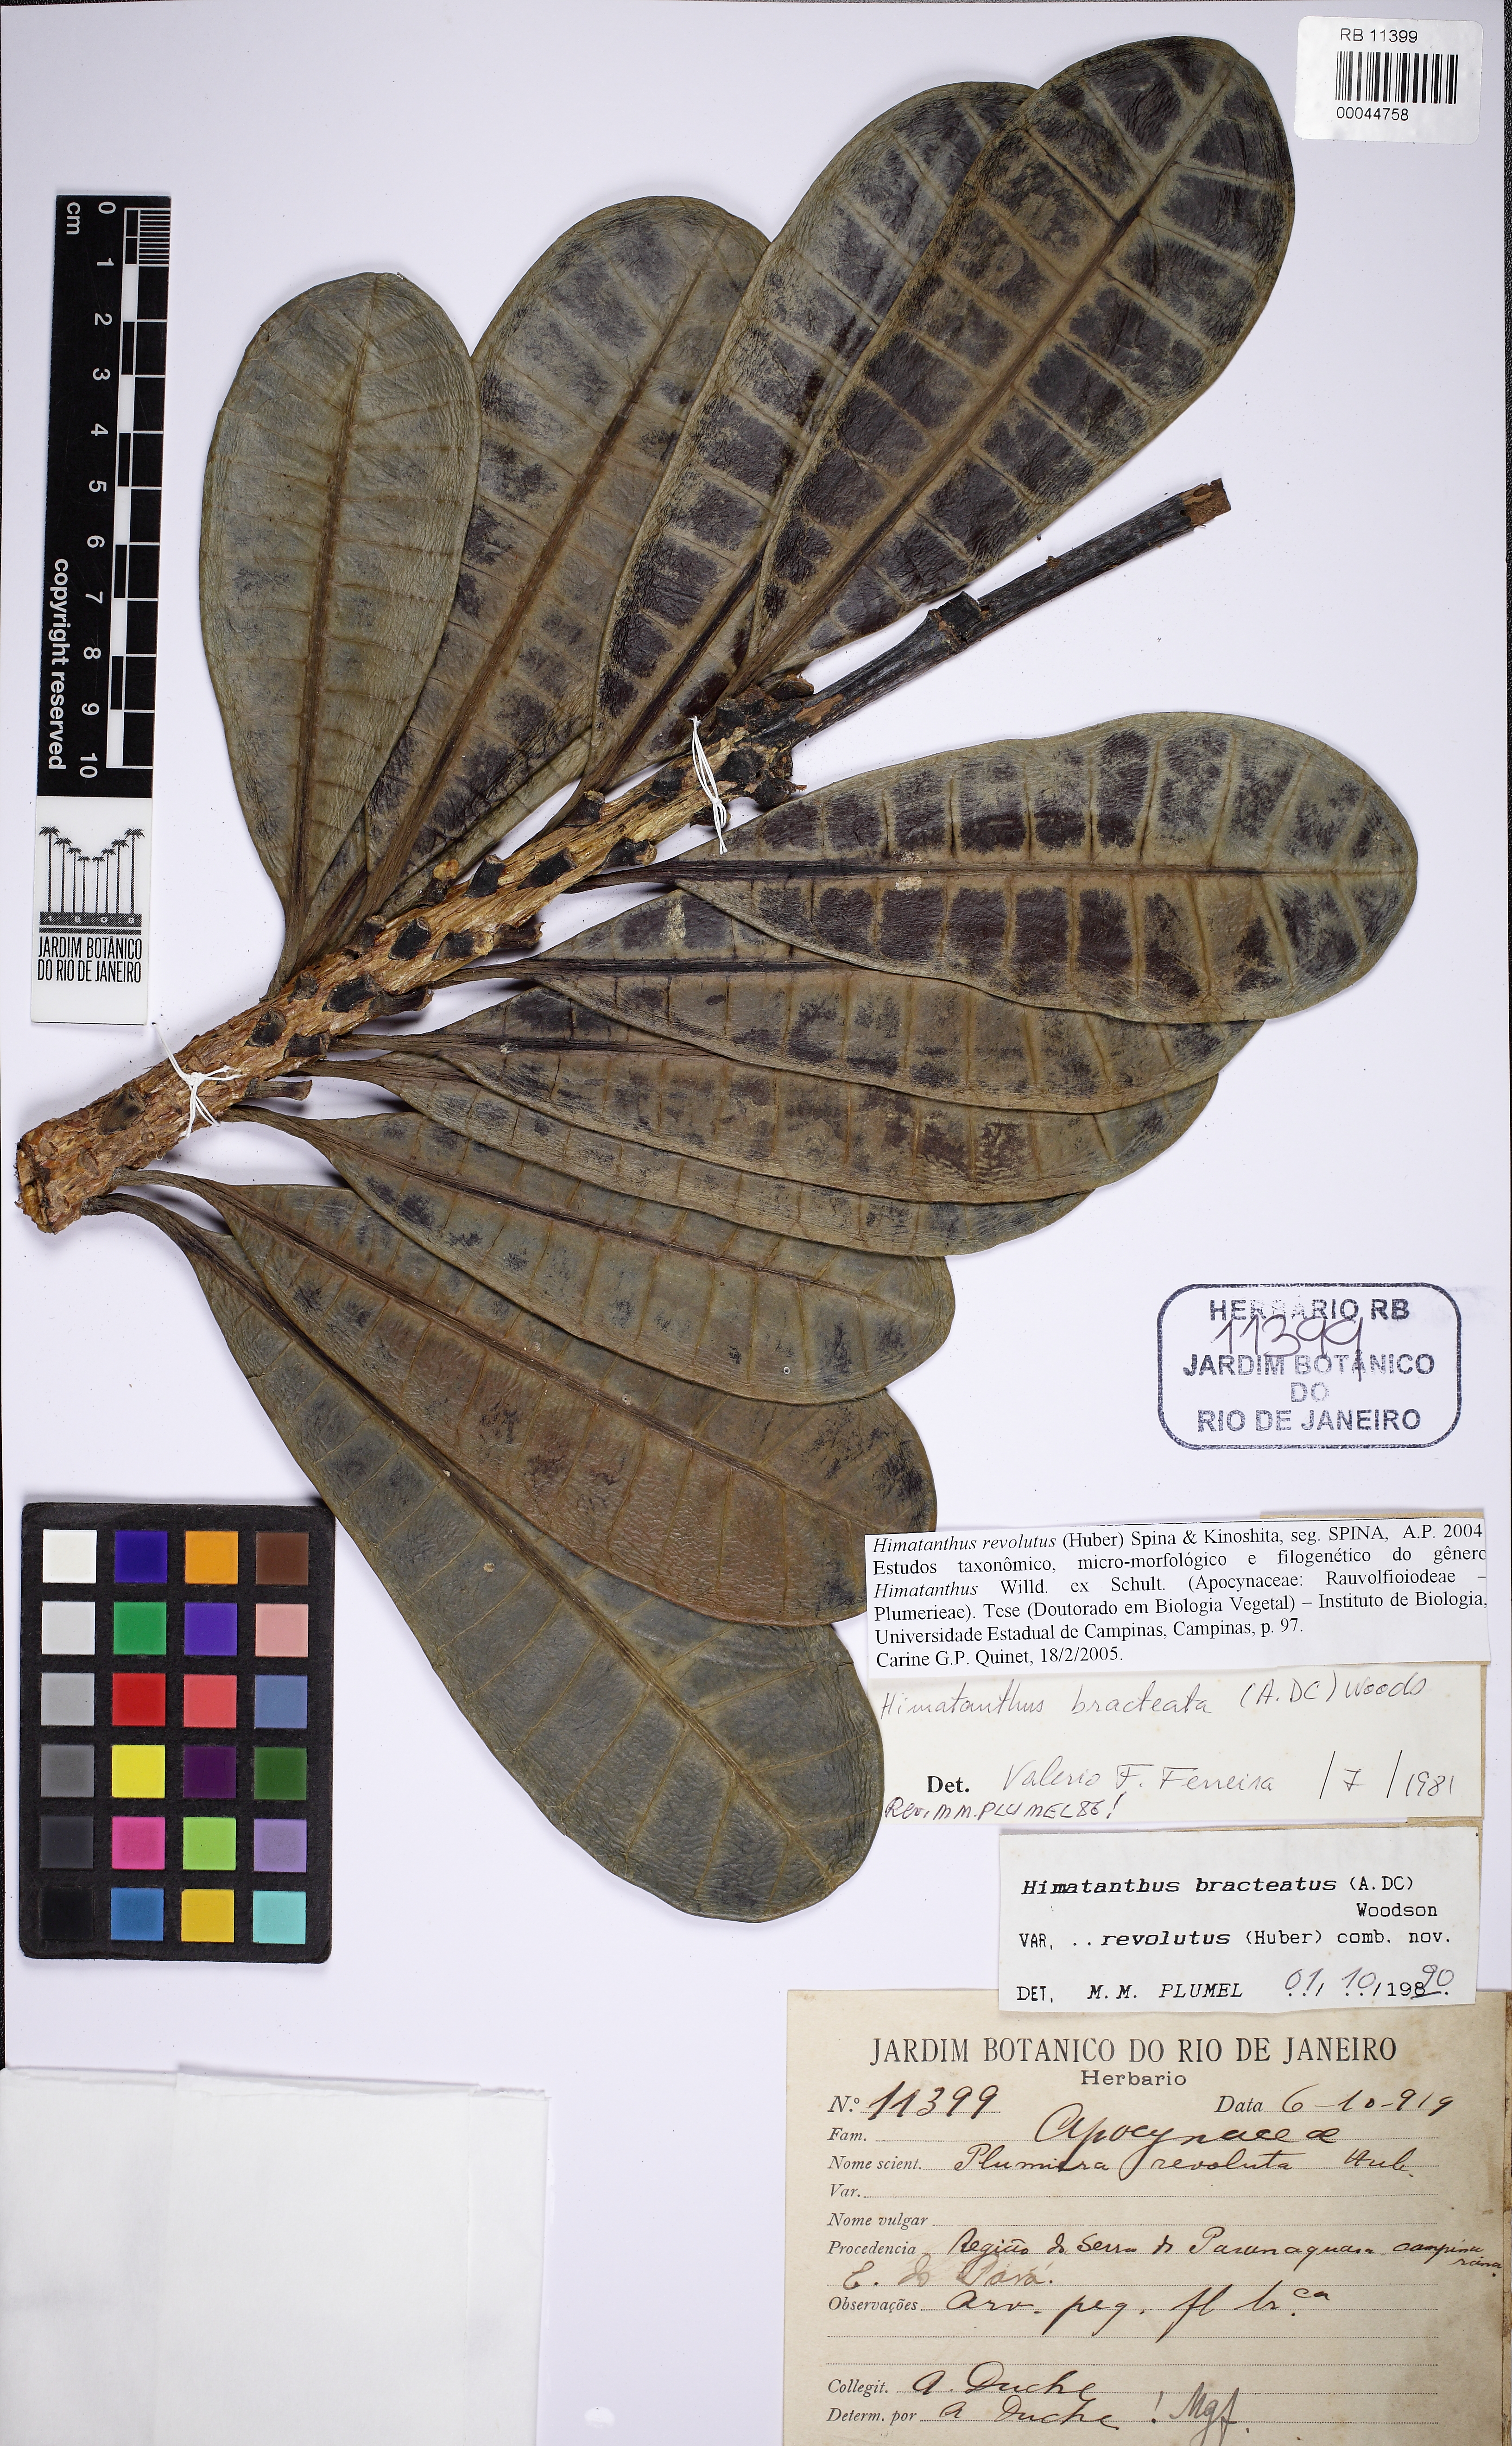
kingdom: Plantae
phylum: Tracheophyta
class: Magnoliopsida
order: Gentianales
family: Apocynaceae
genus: Himatanthus
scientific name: Himatanthus revolutus
